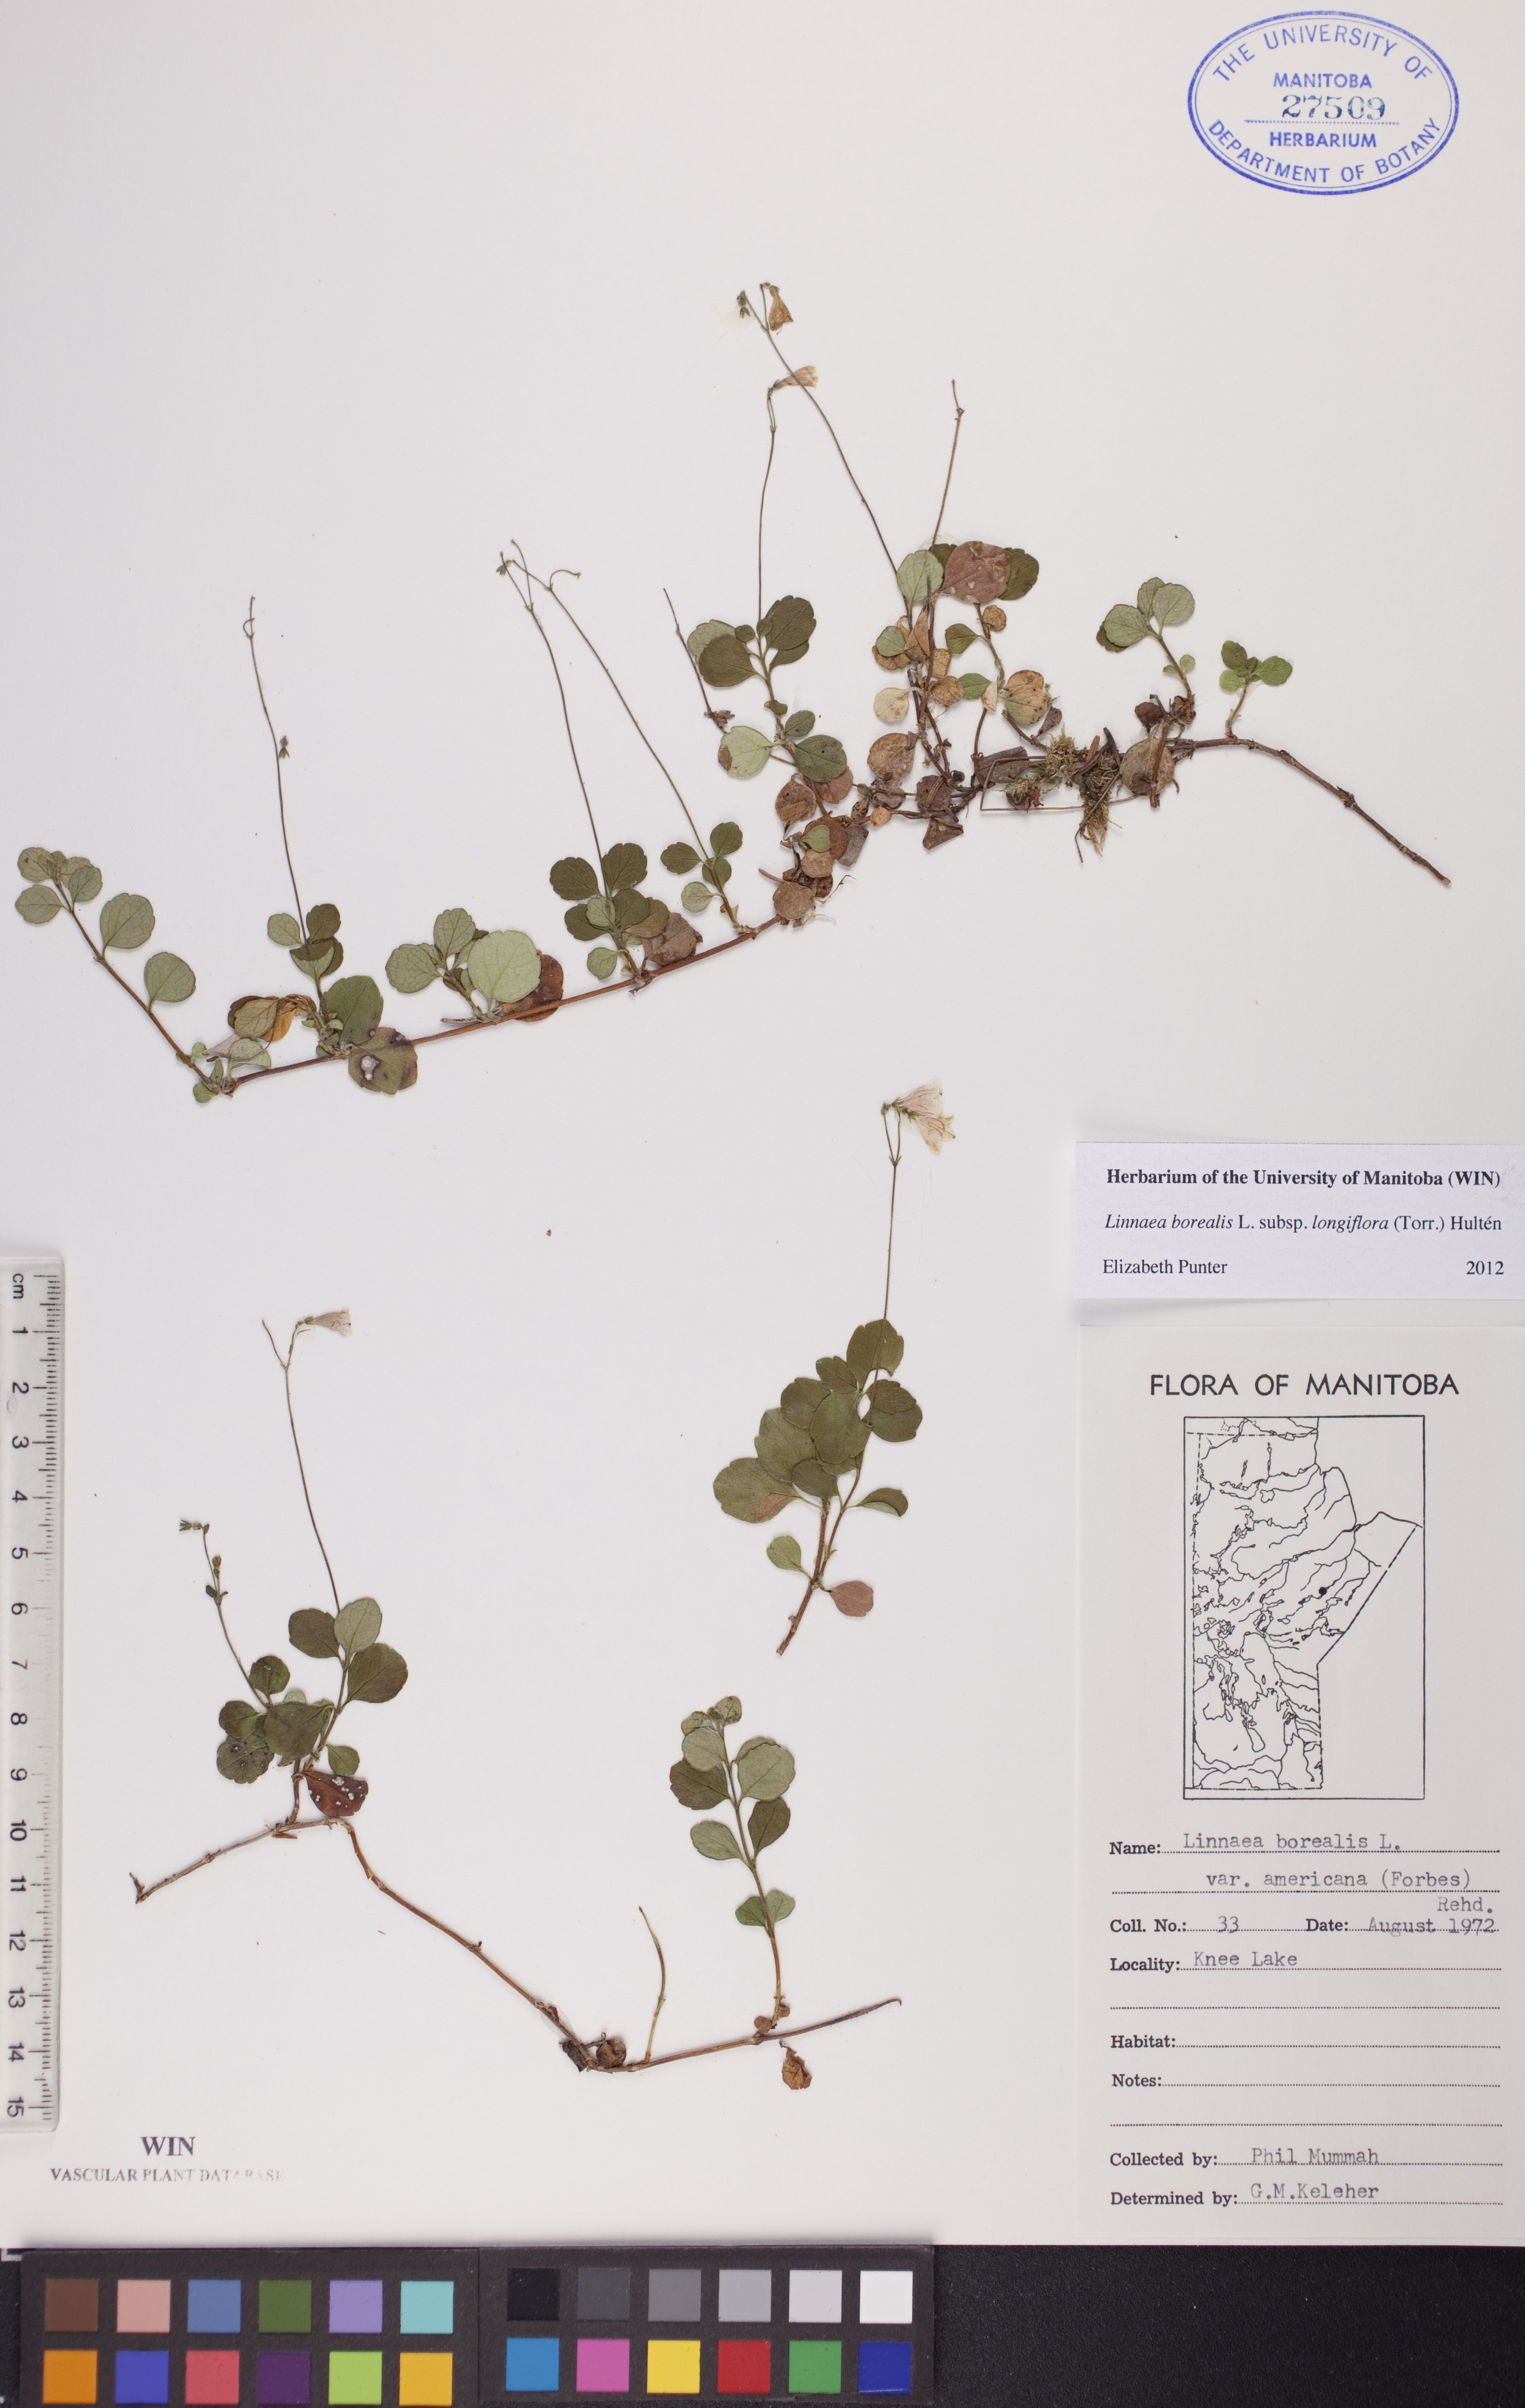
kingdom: Plantae
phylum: Tracheophyta
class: Magnoliopsida
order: Dipsacales
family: Caprifoliaceae
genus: Linnaea
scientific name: Linnaea borealis
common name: Twinflower
